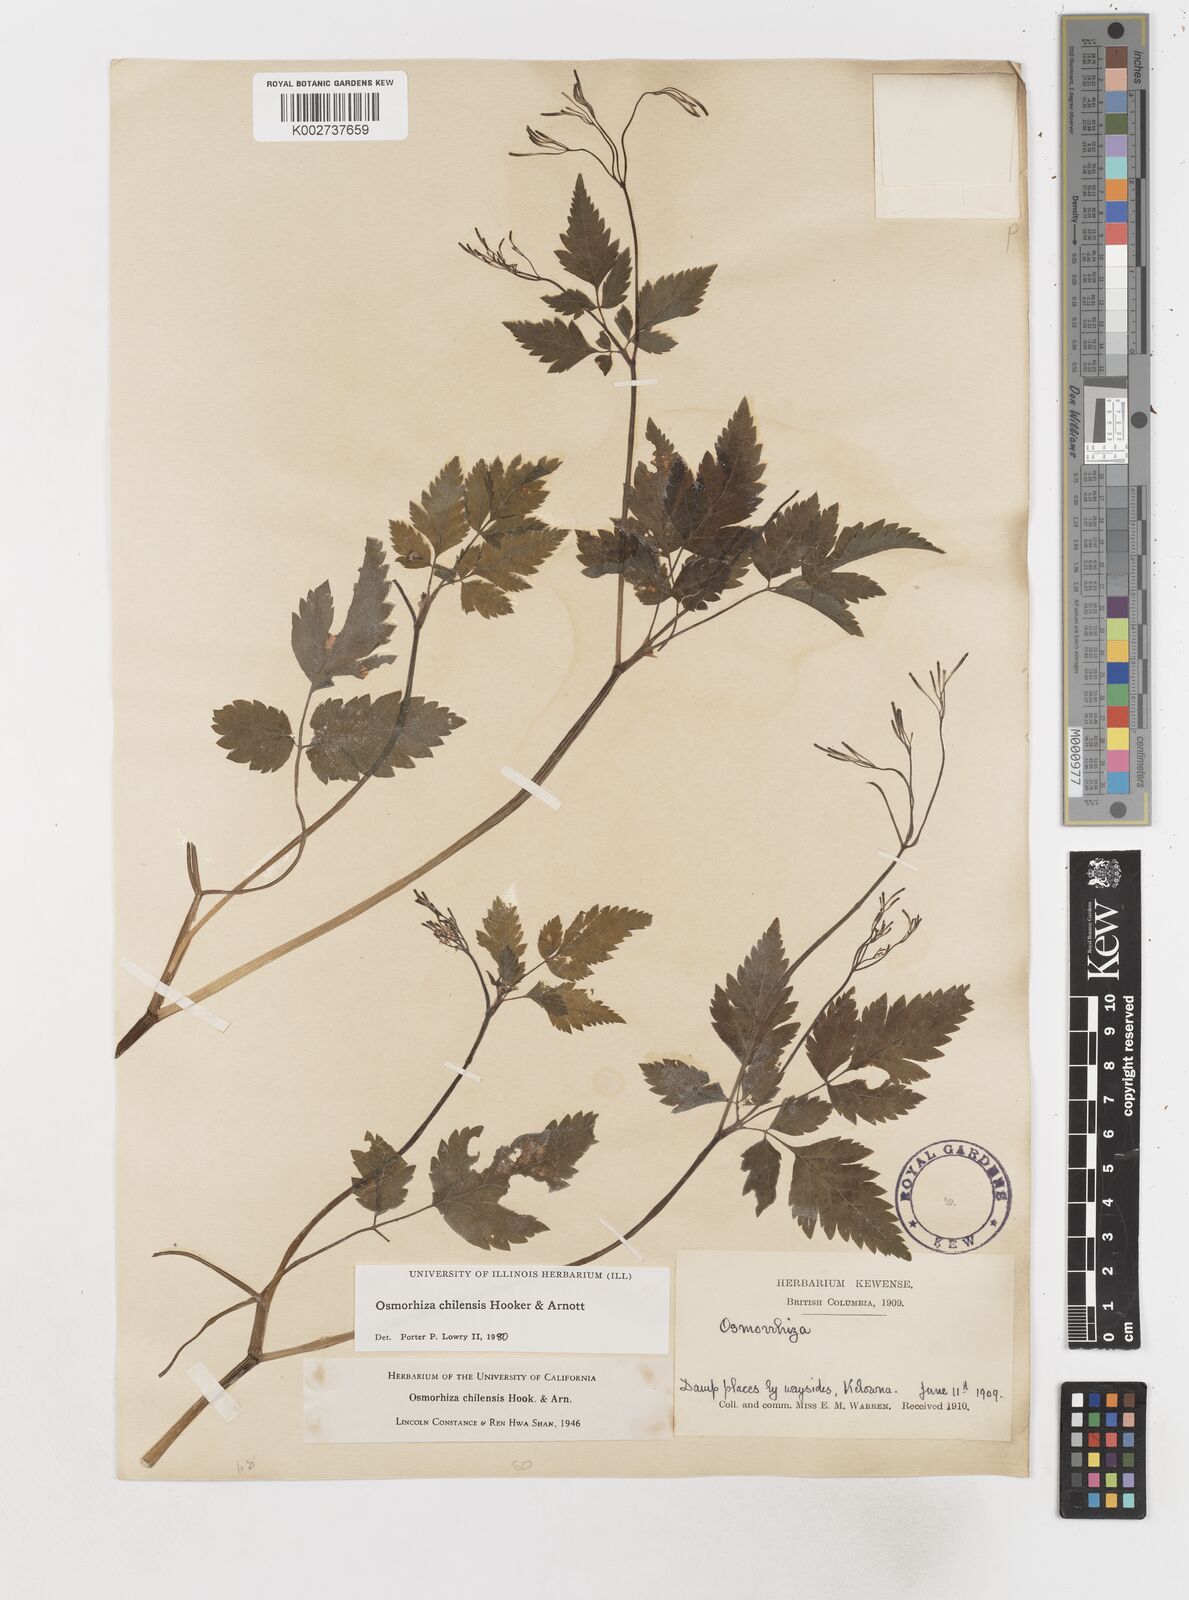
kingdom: Plantae
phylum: Tracheophyta
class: Magnoliopsida
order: Apiales
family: Apiaceae
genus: Osmorhiza
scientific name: Osmorhiza berteroi
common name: Mountain sweet cicely
